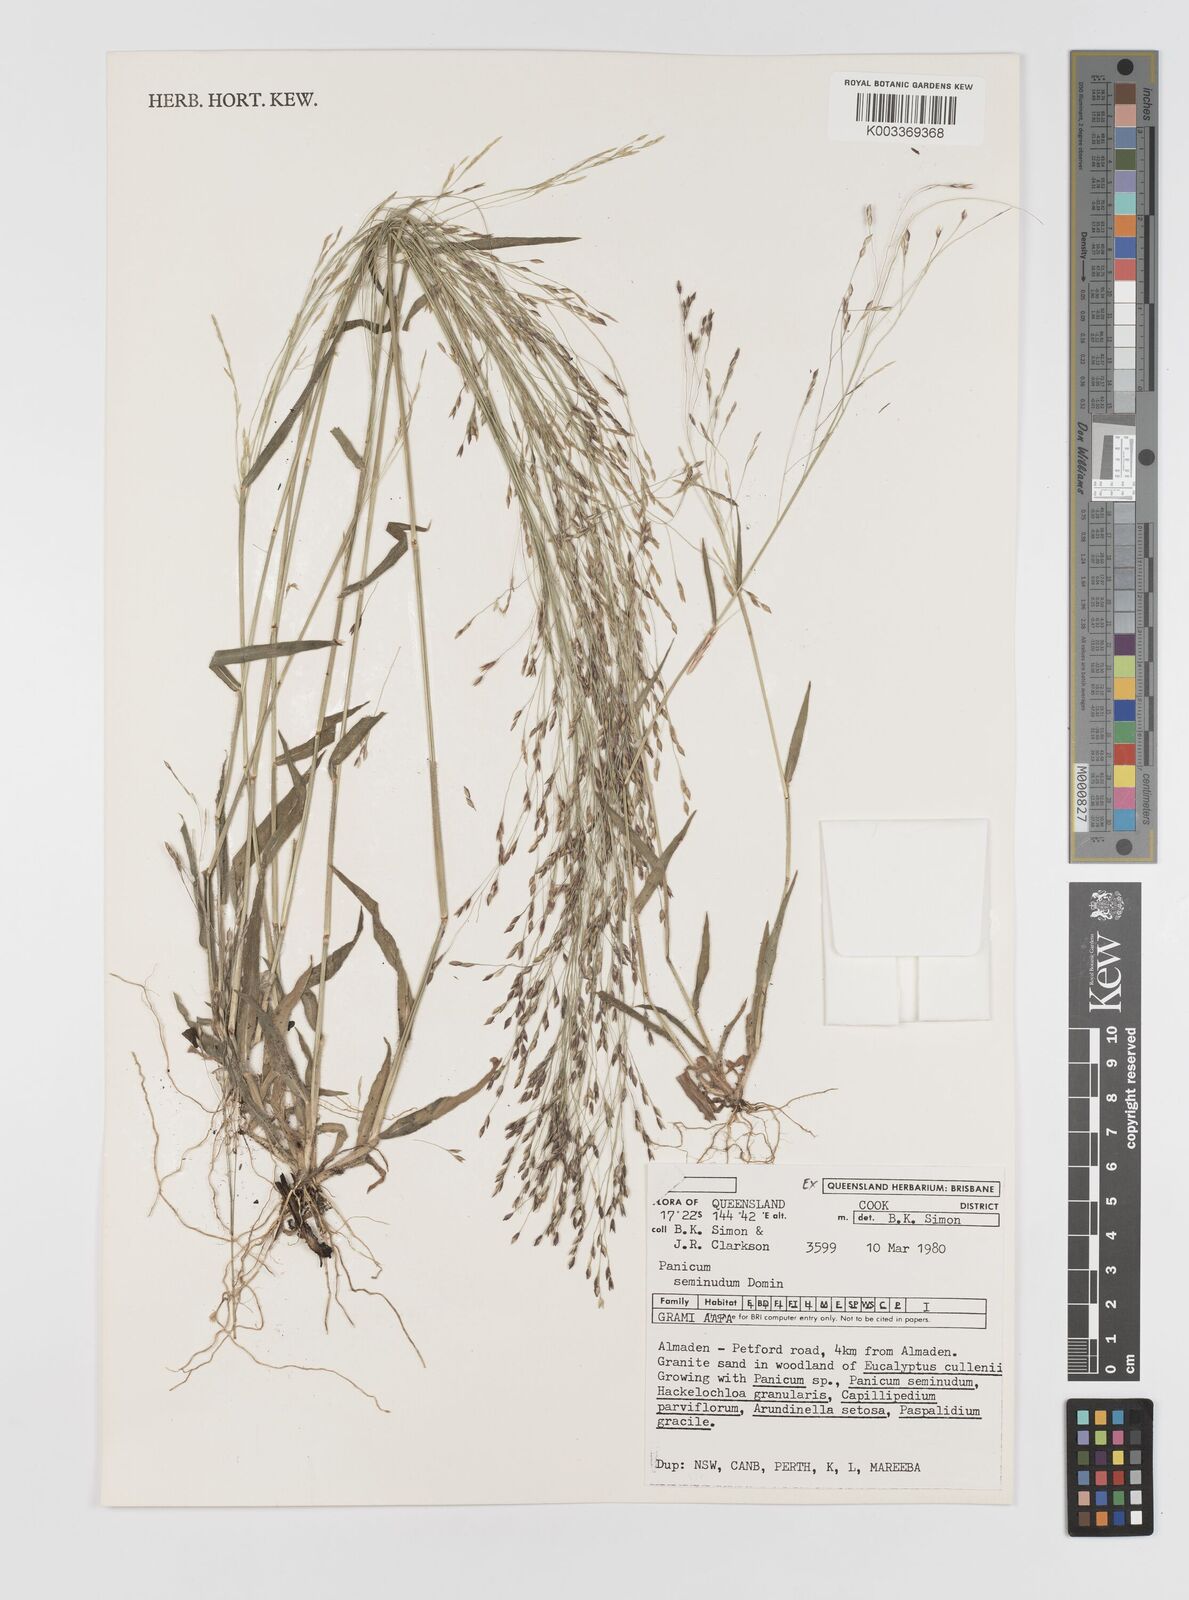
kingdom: Plantae
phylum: Tracheophyta
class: Liliopsida
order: Poales
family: Poaceae
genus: Panicum
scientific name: Panicum seminudum
